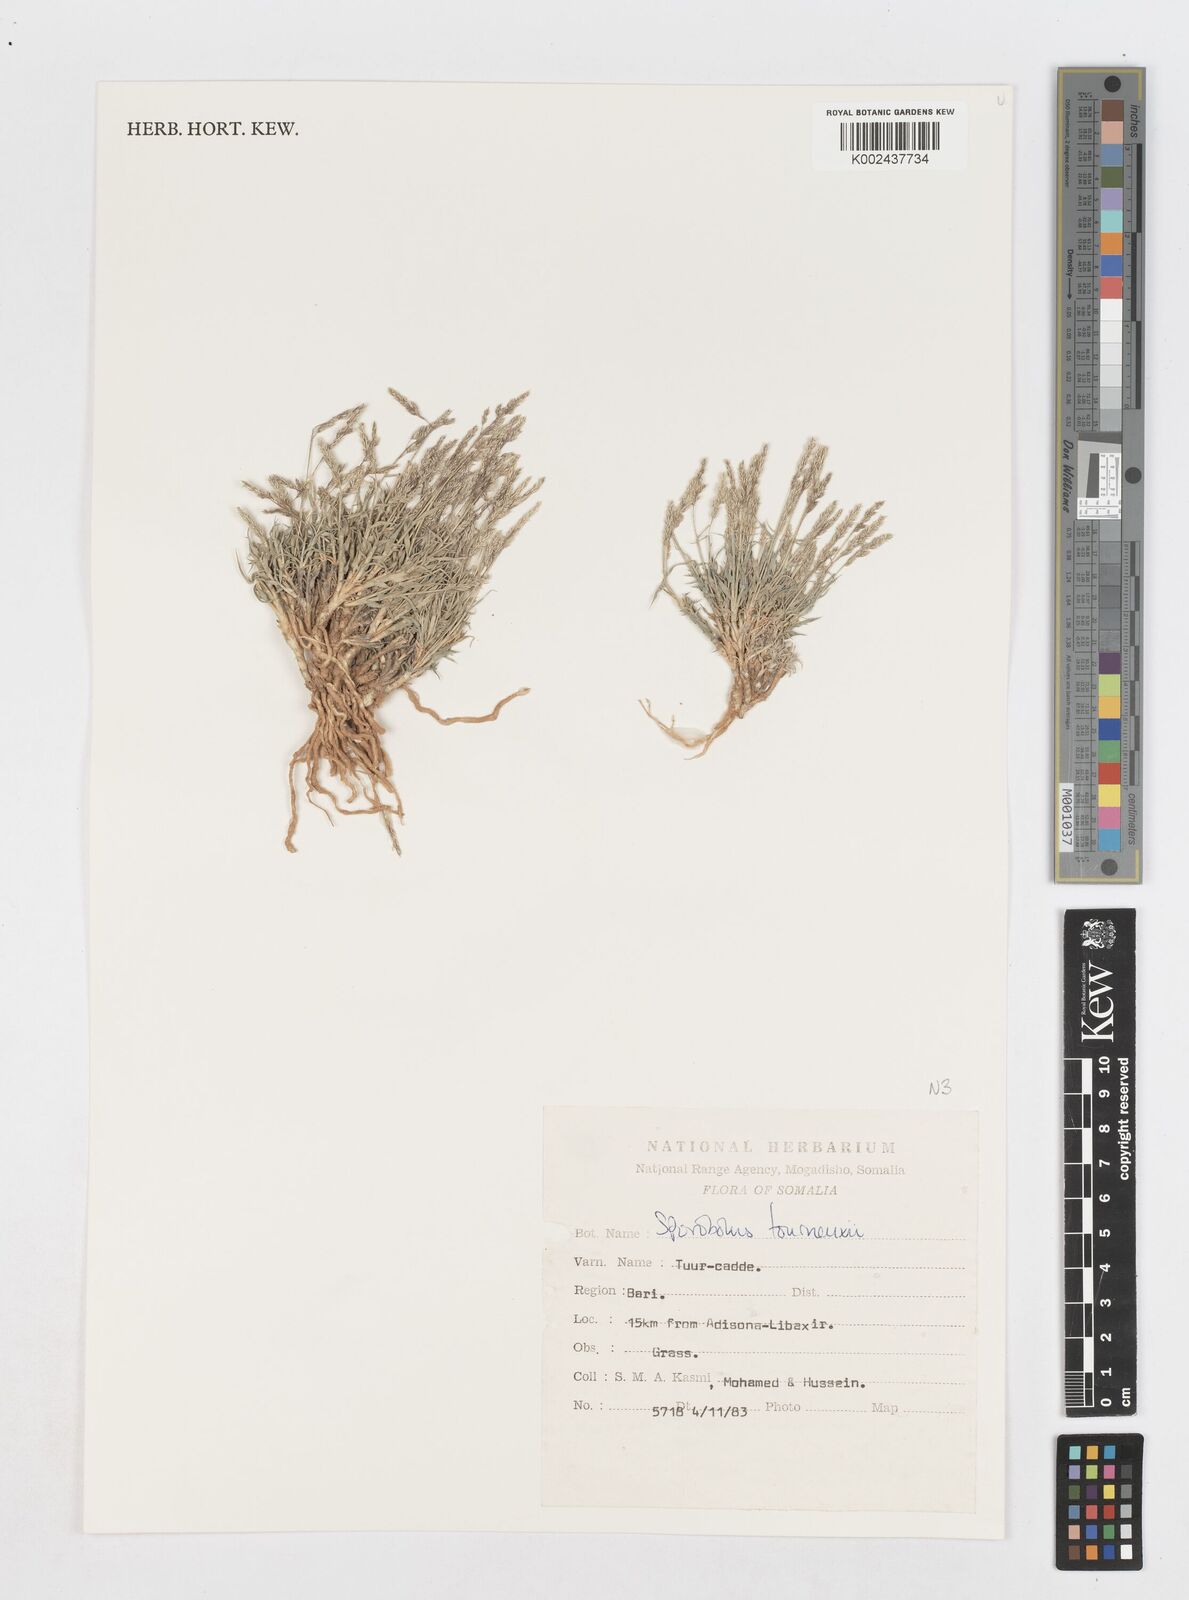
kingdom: Plantae
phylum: Tracheophyta
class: Liliopsida
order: Poales
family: Poaceae
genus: Sporobolus
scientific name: Sporobolus tourneuxii
